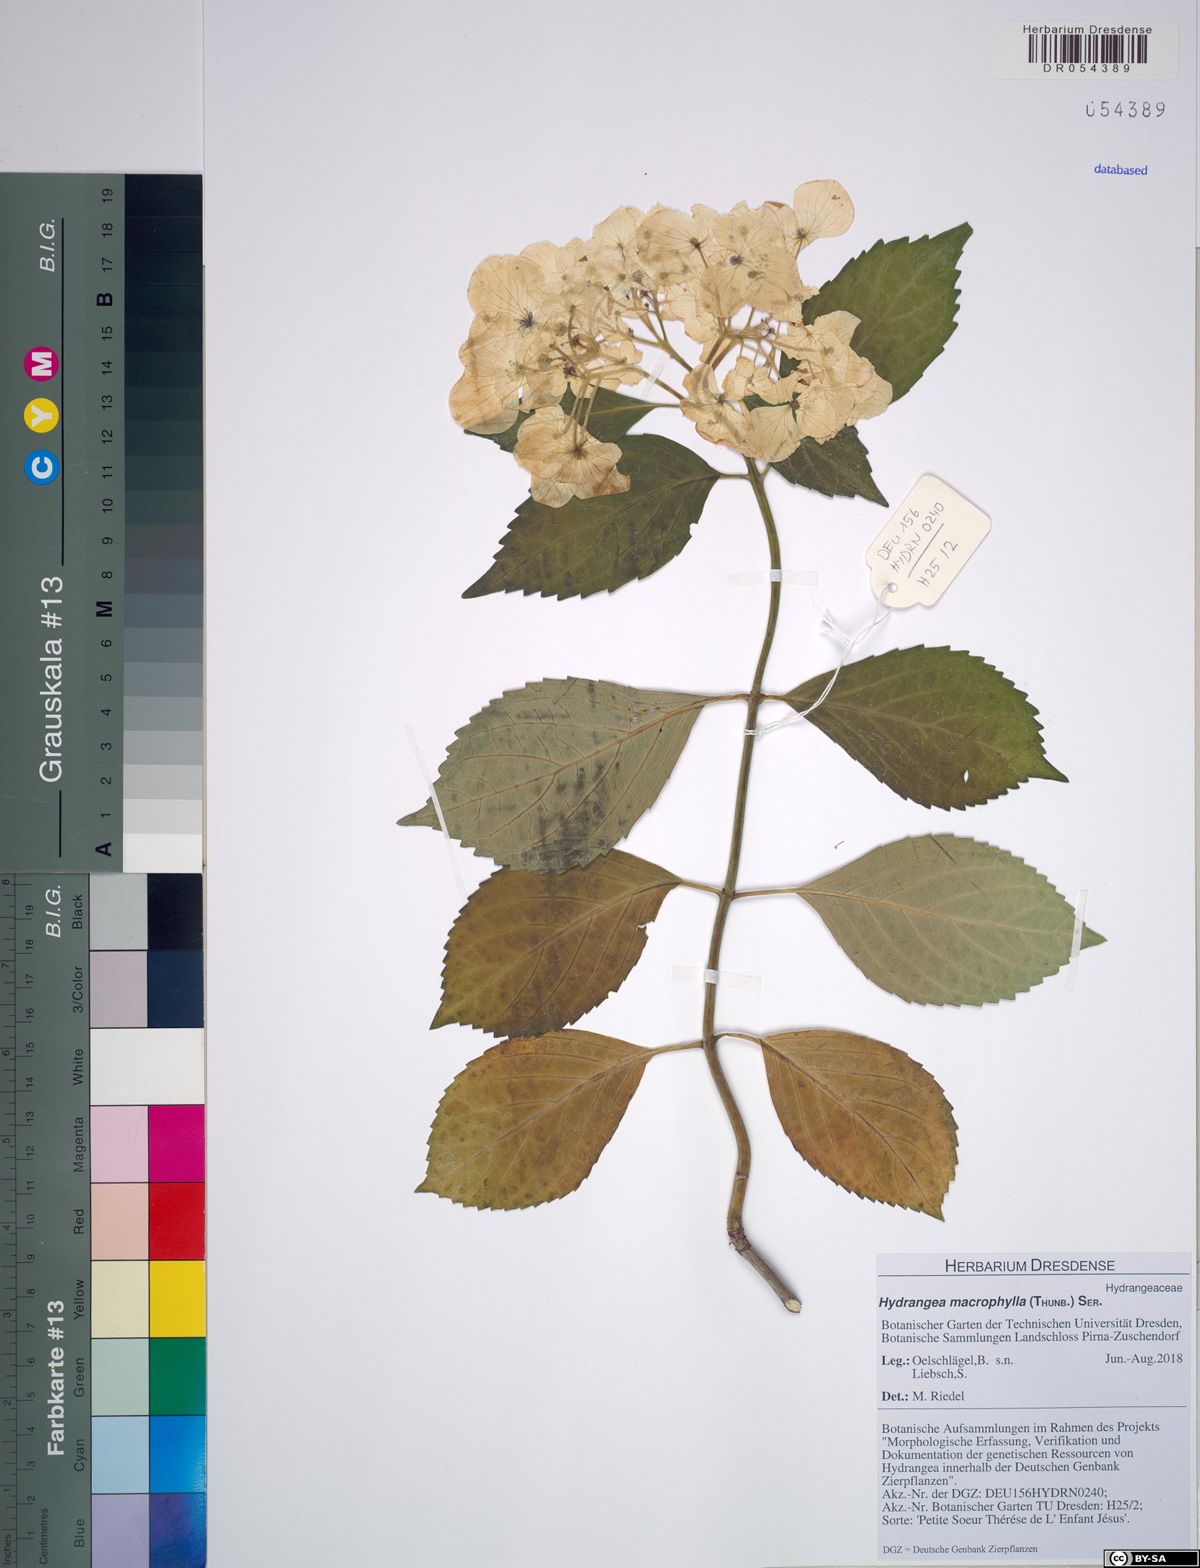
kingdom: Plantae
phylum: Tracheophyta
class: Magnoliopsida
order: Cornales
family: Hydrangeaceae
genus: Hydrangea
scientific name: Hydrangea macrophylla
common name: Hydrangea
